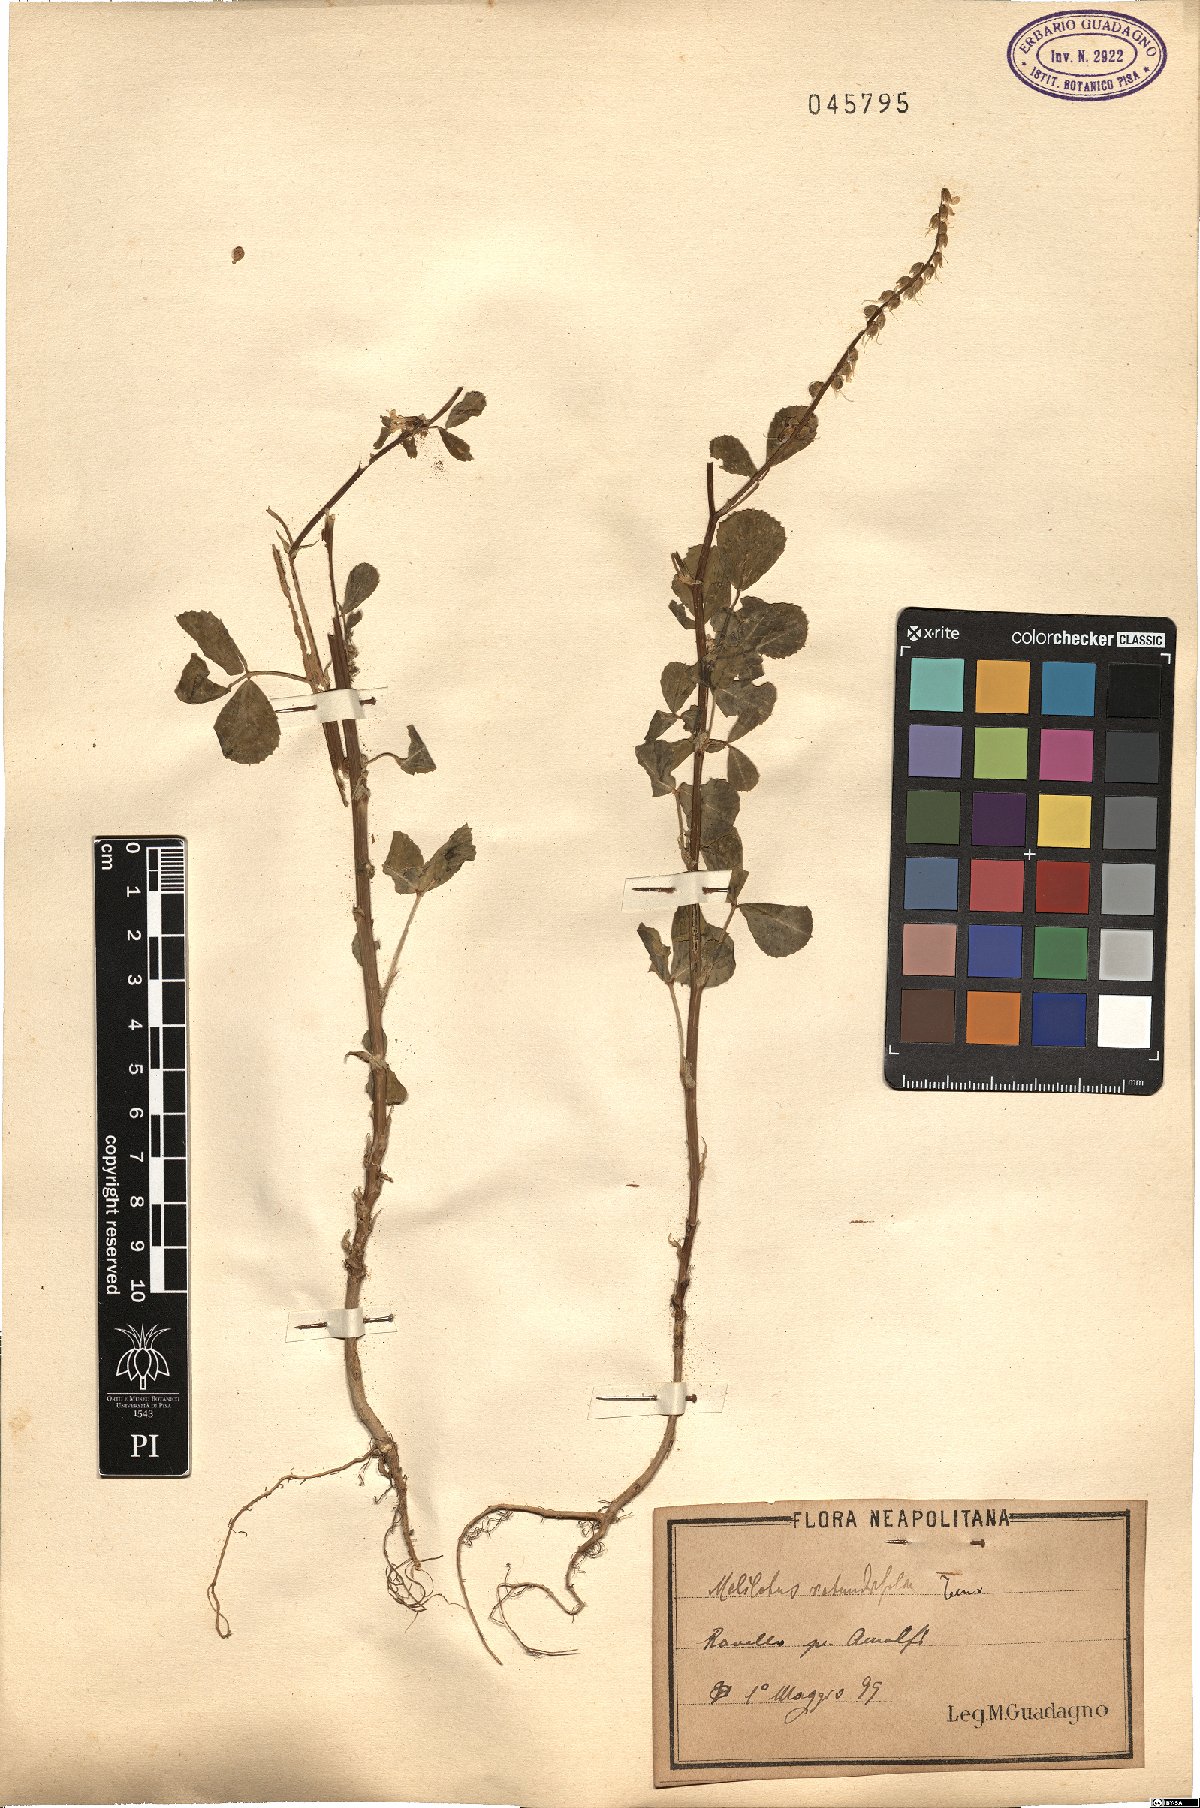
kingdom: Plantae
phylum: Tracheophyta
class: Magnoliopsida
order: Fabales
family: Fabaceae
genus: Melilotus
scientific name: Melilotus italicus
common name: Italian melilot
